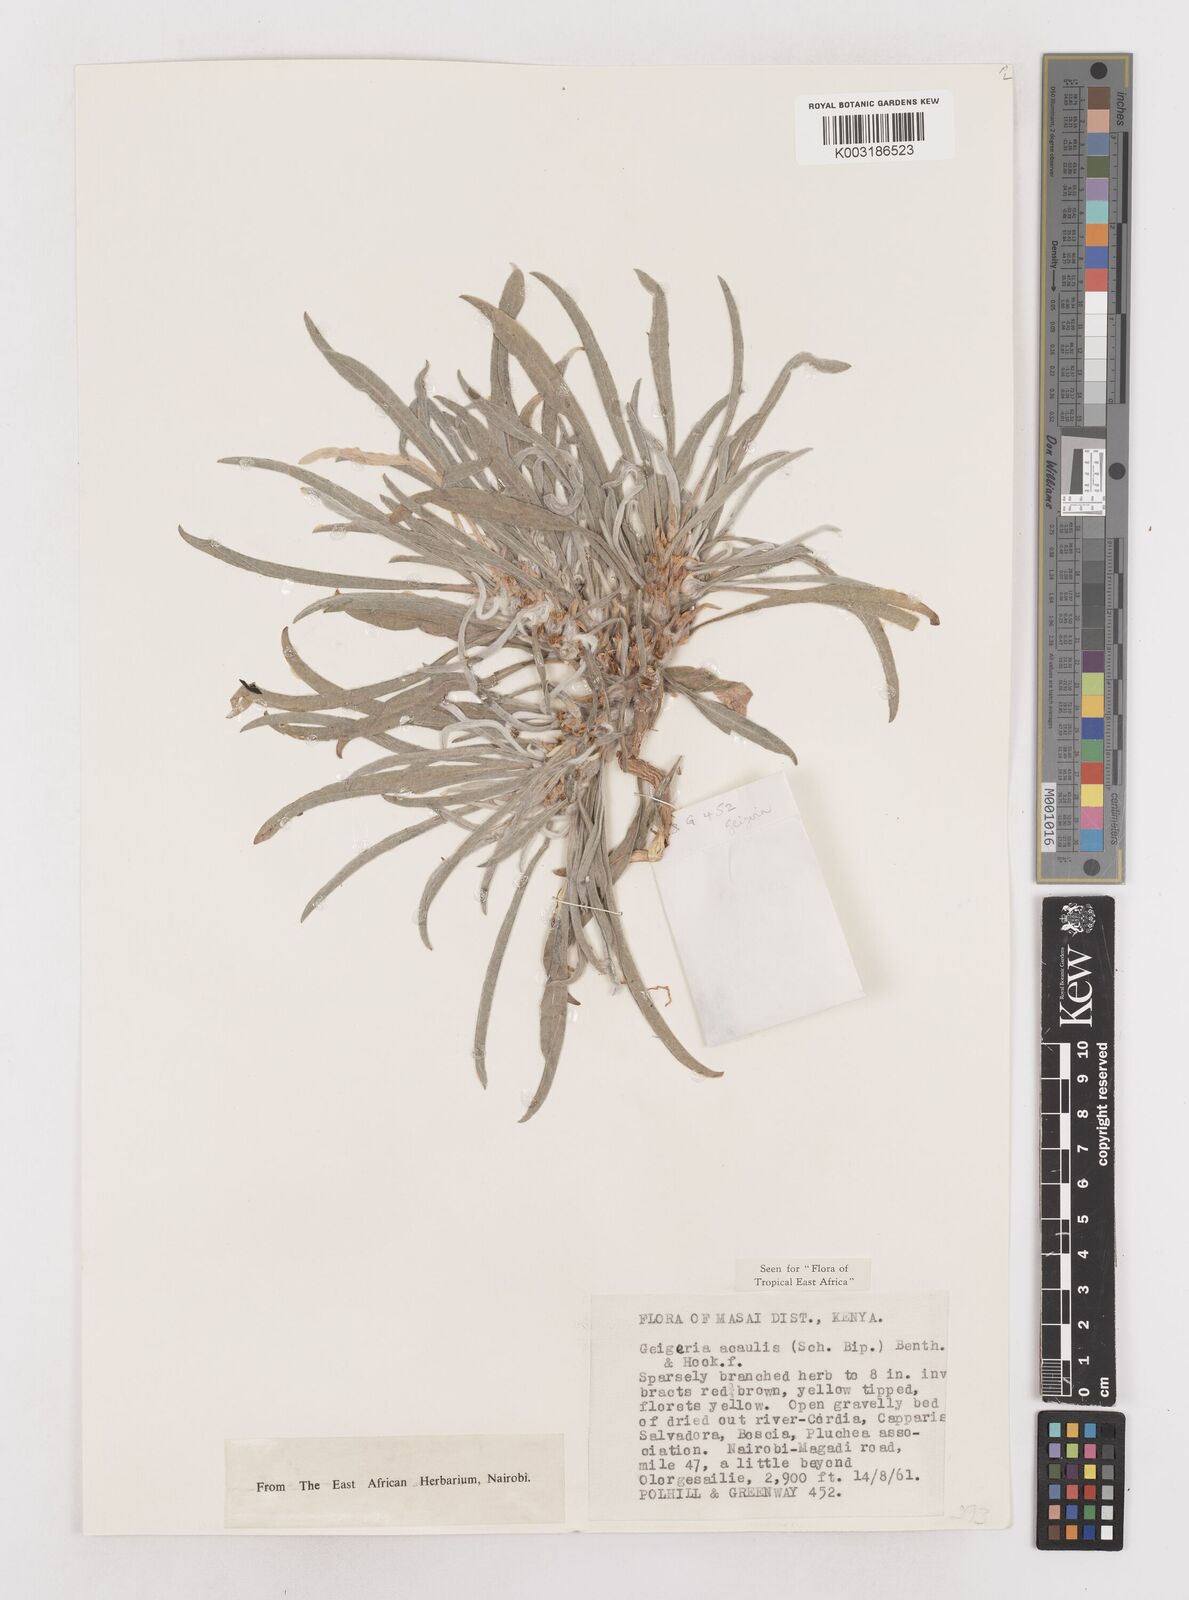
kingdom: Plantae
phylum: Tracheophyta
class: Magnoliopsida
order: Asterales
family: Asteraceae
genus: Geigeria
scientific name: Geigeria acaulis
